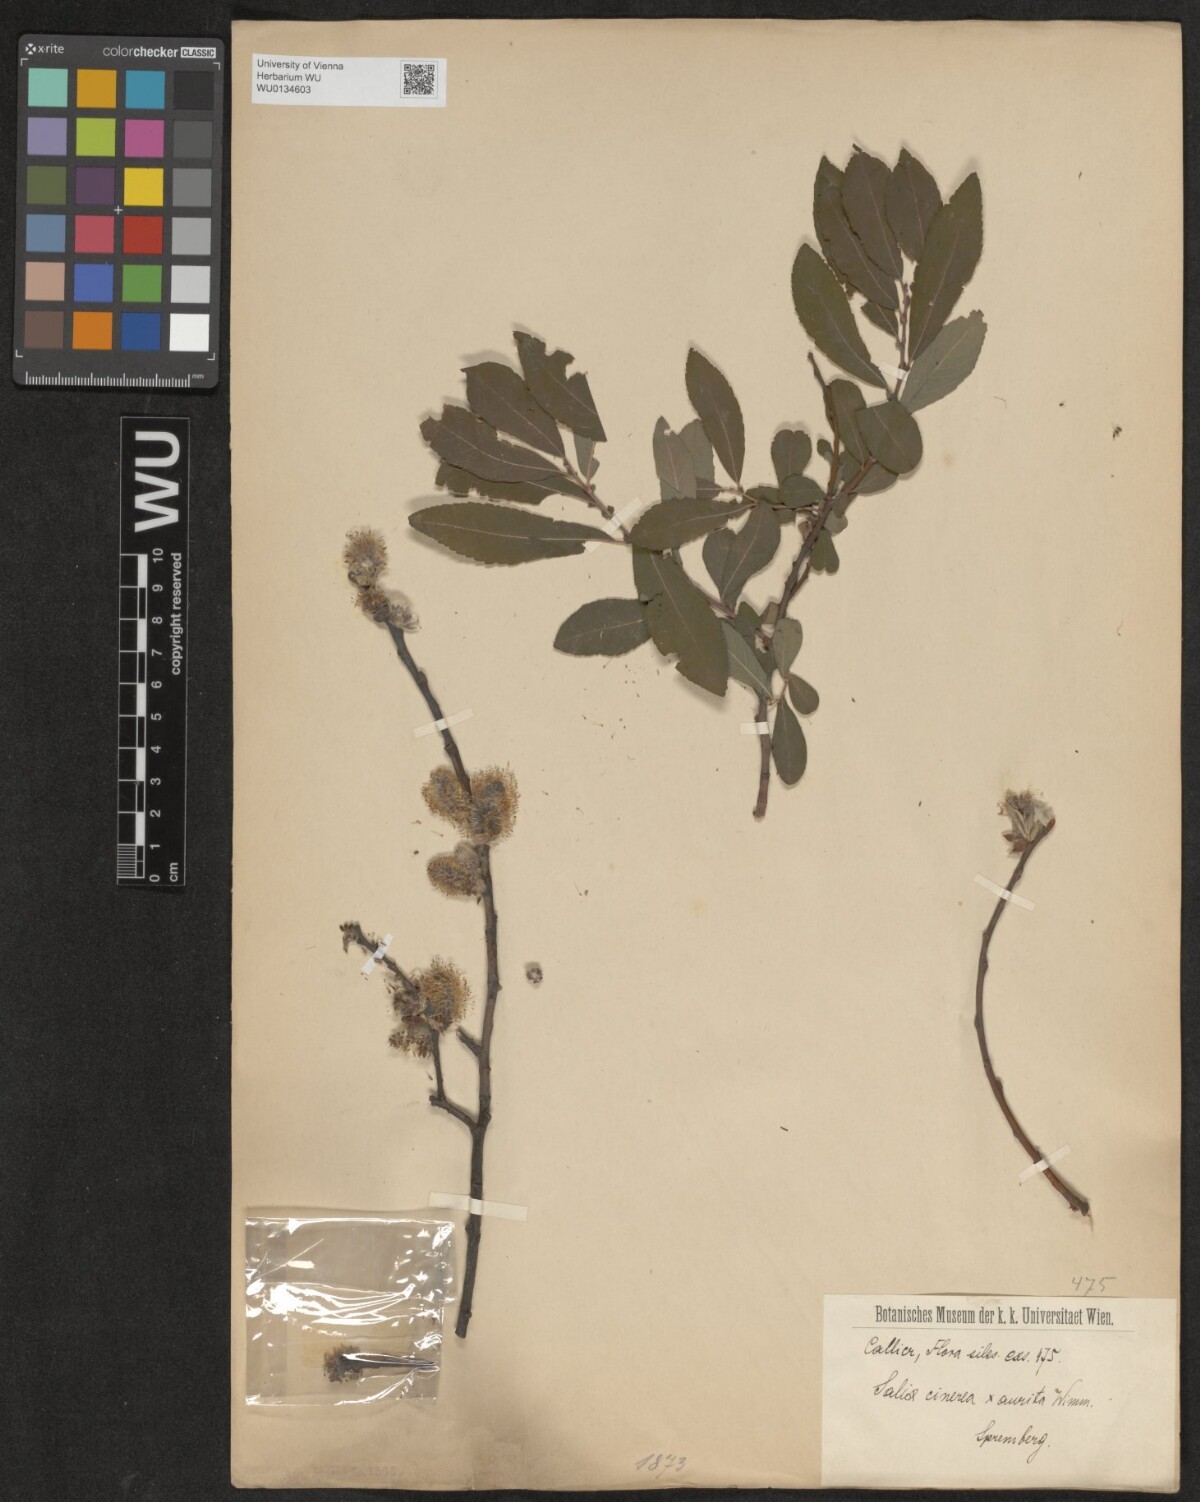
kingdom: Plantae
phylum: Tracheophyta
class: Magnoliopsida
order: Malpighiales
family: Salicaceae
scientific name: Salicaceae
